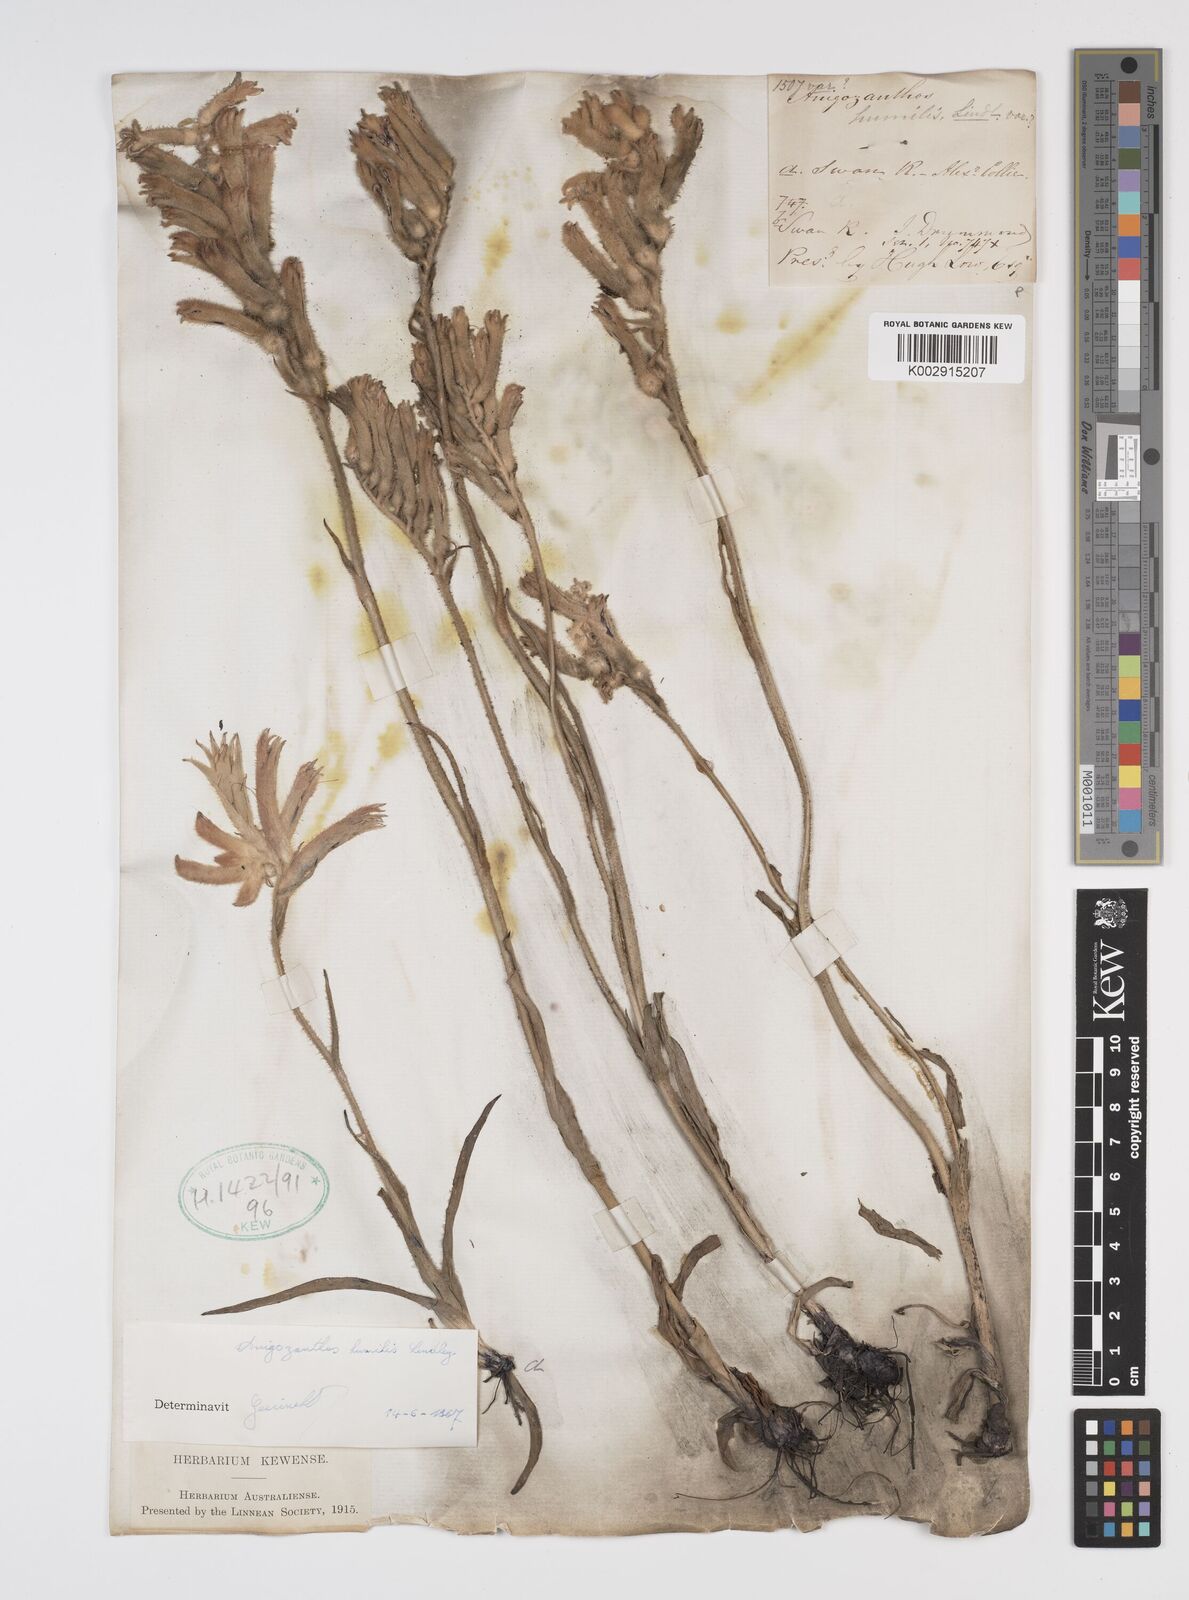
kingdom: Plantae
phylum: Tracheophyta
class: Liliopsida
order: Commelinales
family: Haemodoraceae
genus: Anigozanthos
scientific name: Anigozanthos humilis
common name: Cat's-paw
